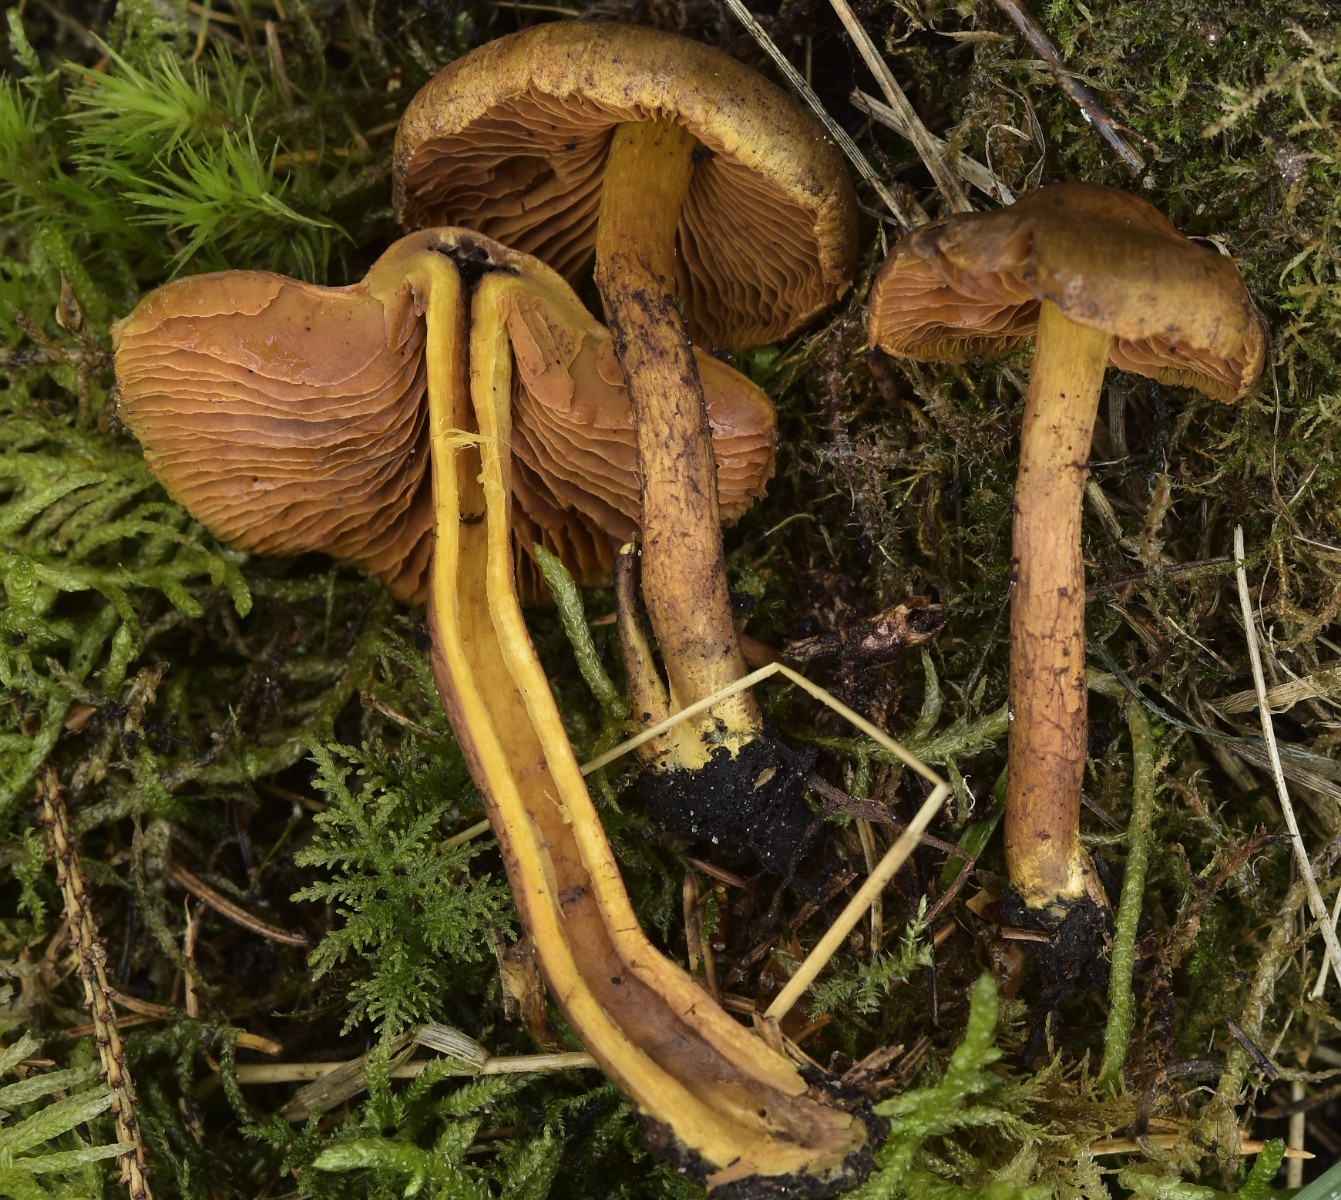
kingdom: Fungi
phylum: Basidiomycota
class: Agaricomycetes
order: Agaricales
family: Cortinariaceae
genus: Cortinarius
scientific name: Cortinarius malicorius
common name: grønkødet slørhat
